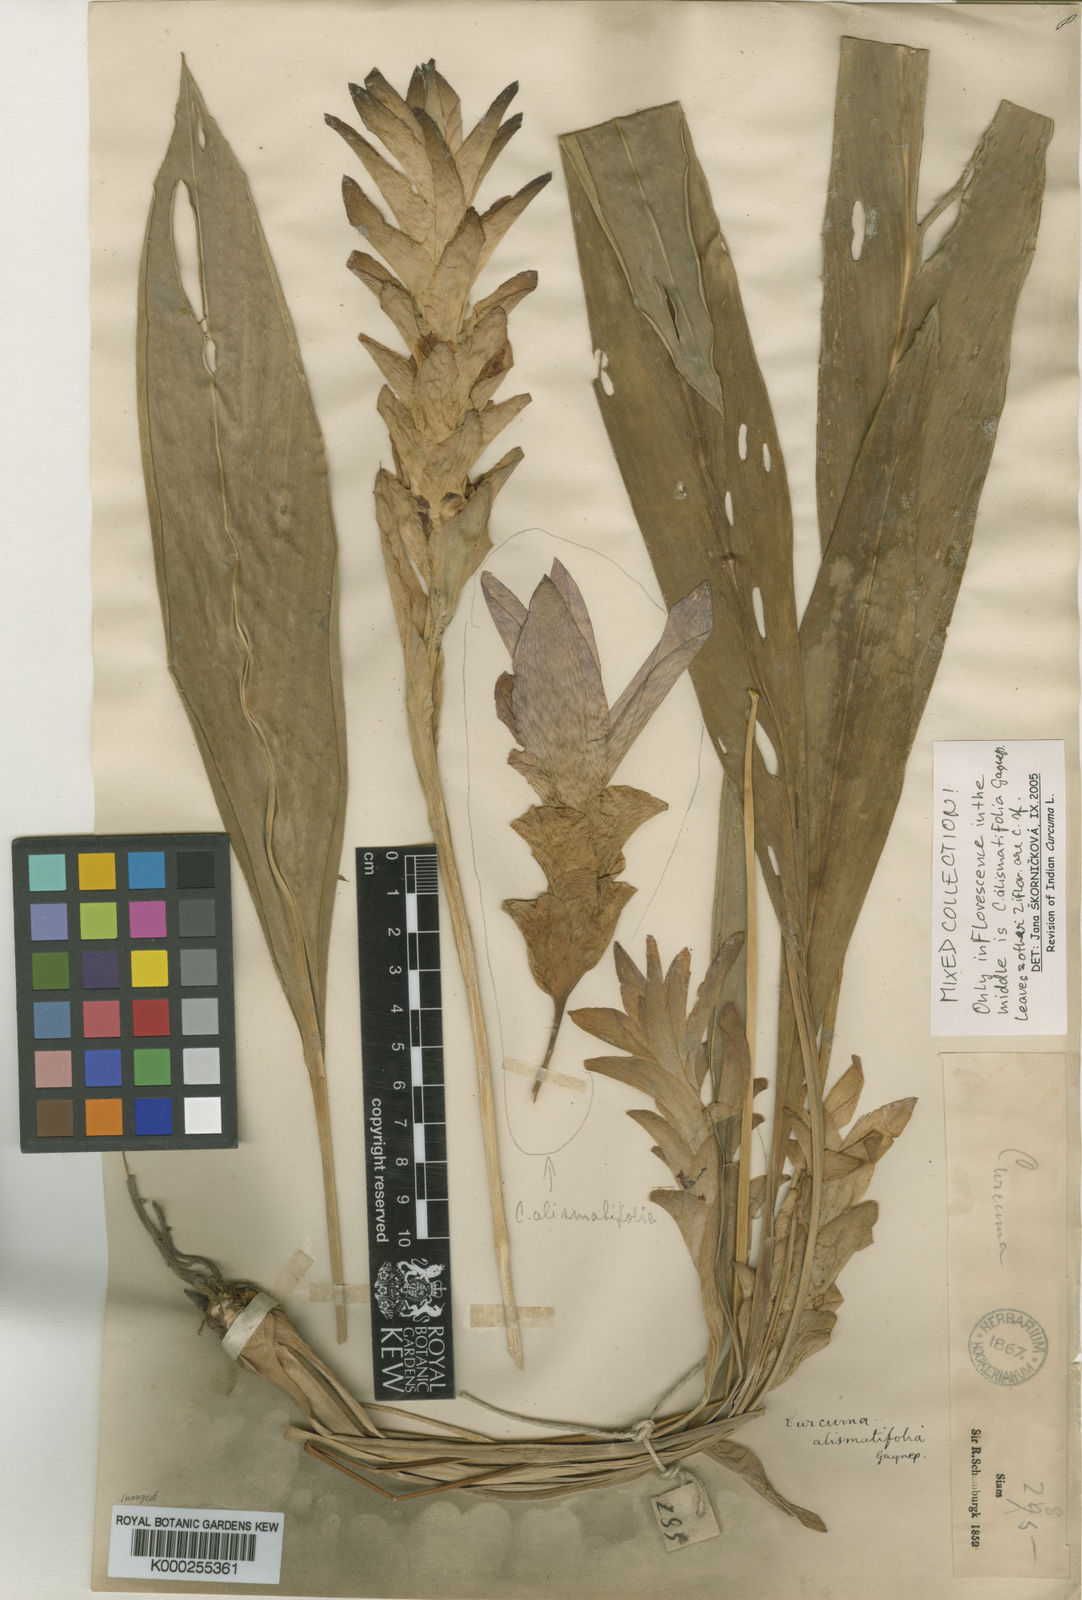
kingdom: Plantae
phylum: Tracheophyta
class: Liliopsida
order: Zingiberales
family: Zingiberaceae
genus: Curcuma
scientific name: Curcuma alismatifolia
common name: Siam tulip
